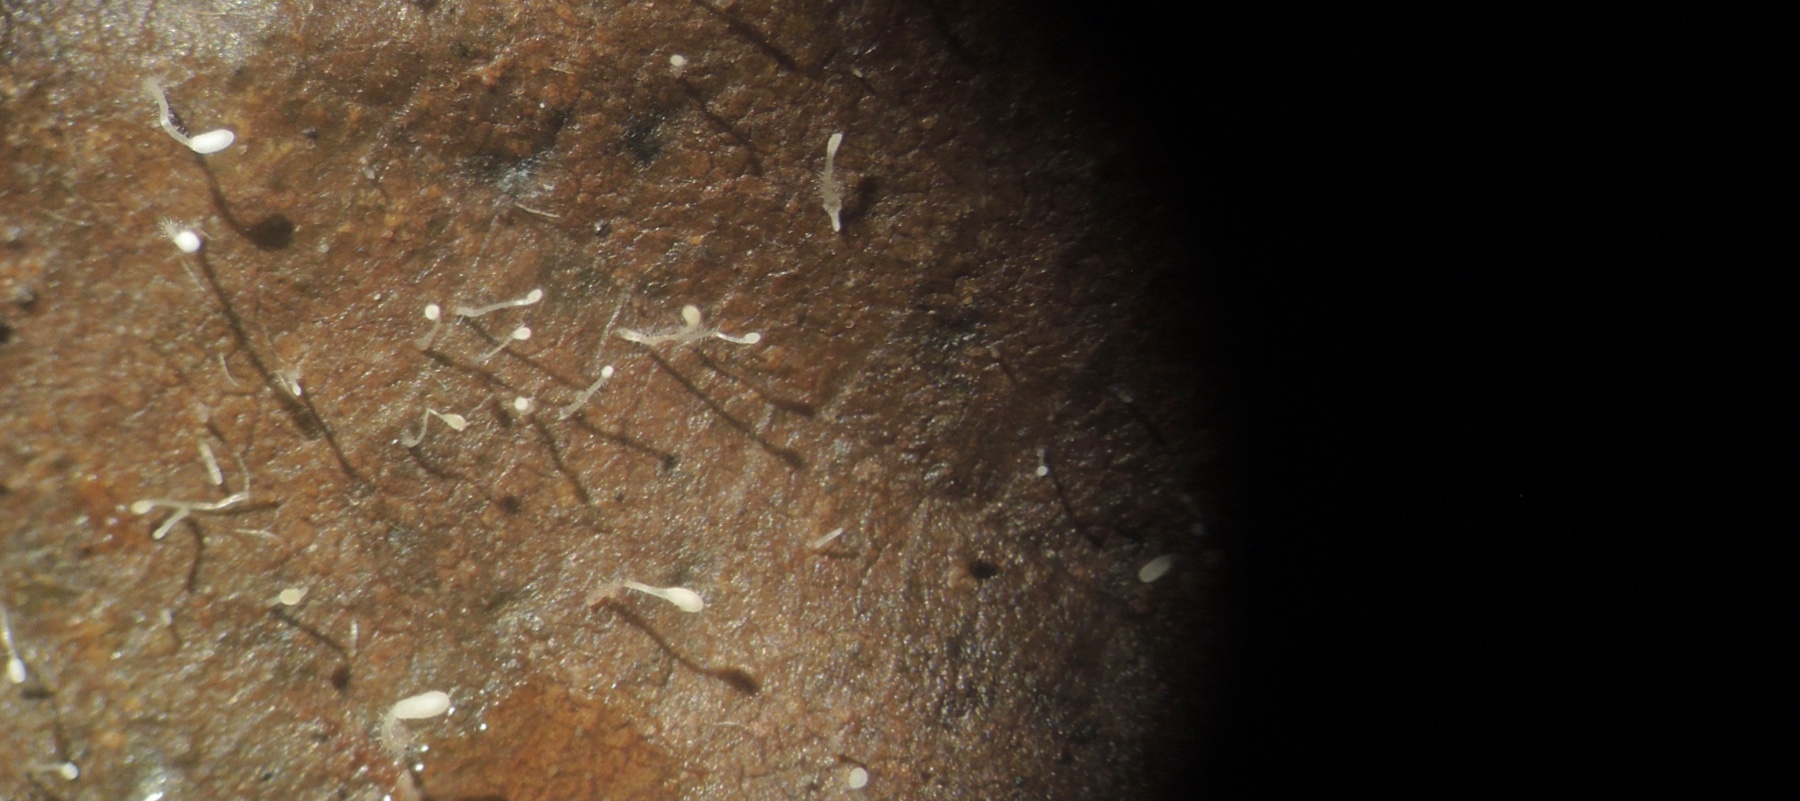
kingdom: Fungi
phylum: Basidiomycota
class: Agaricomycetes
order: Agaricales
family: Typhulaceae
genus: Typhula
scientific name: Typhula setipes
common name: liden trådkølle
